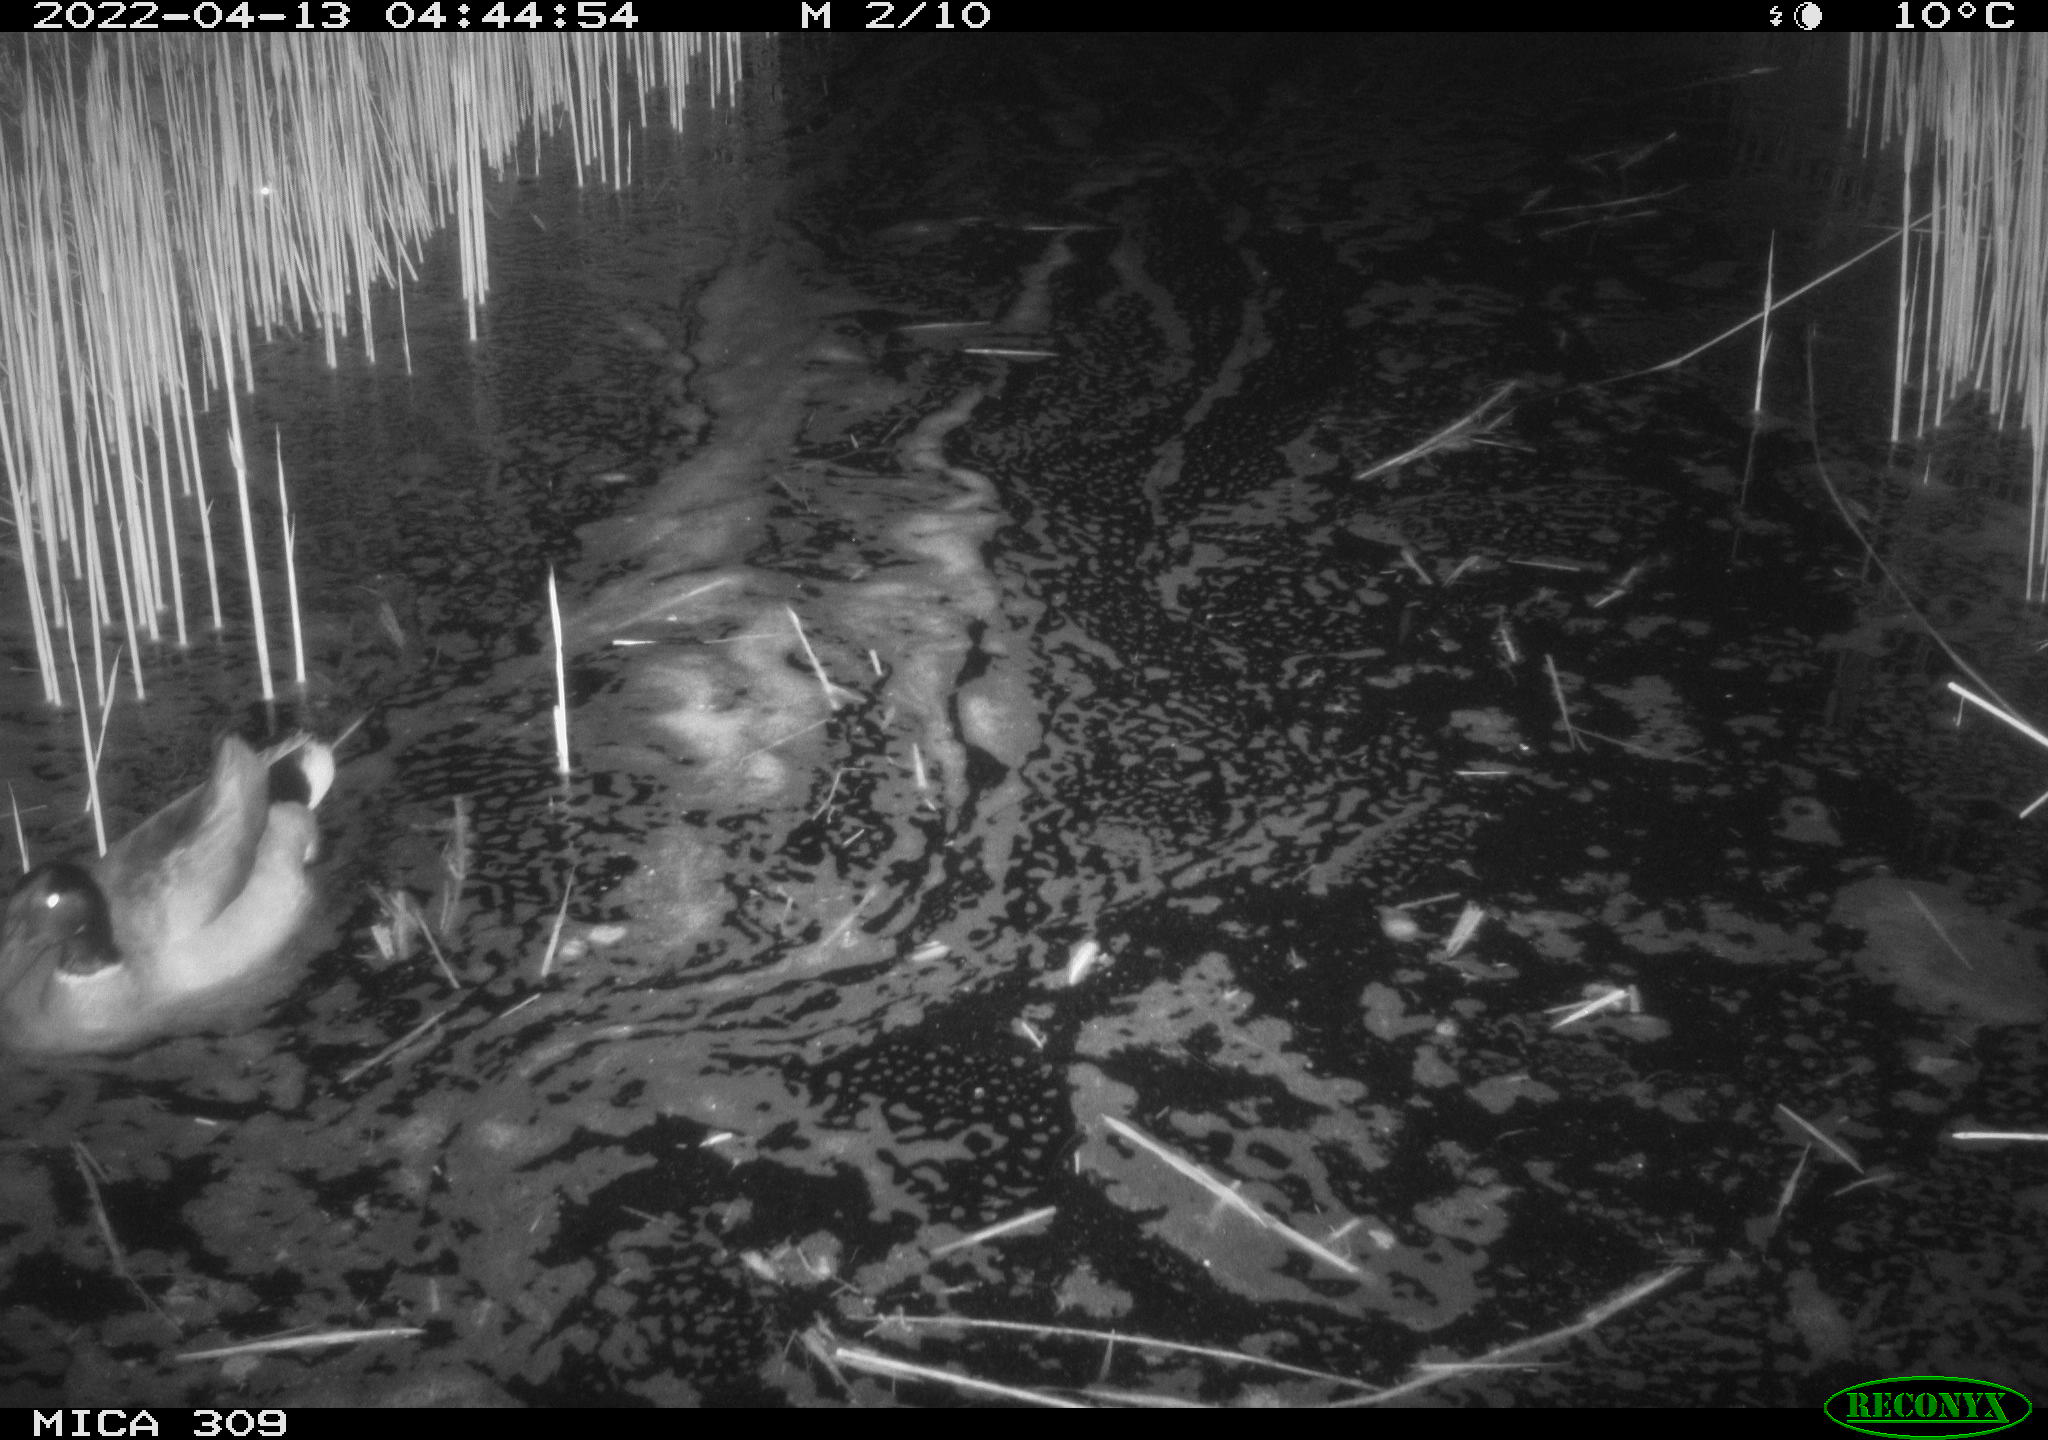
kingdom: Animalia
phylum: Chordata
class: Aves
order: Anseriformes
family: Anatidae
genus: Anas
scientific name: Anas platyrhynchos
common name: Mallard
